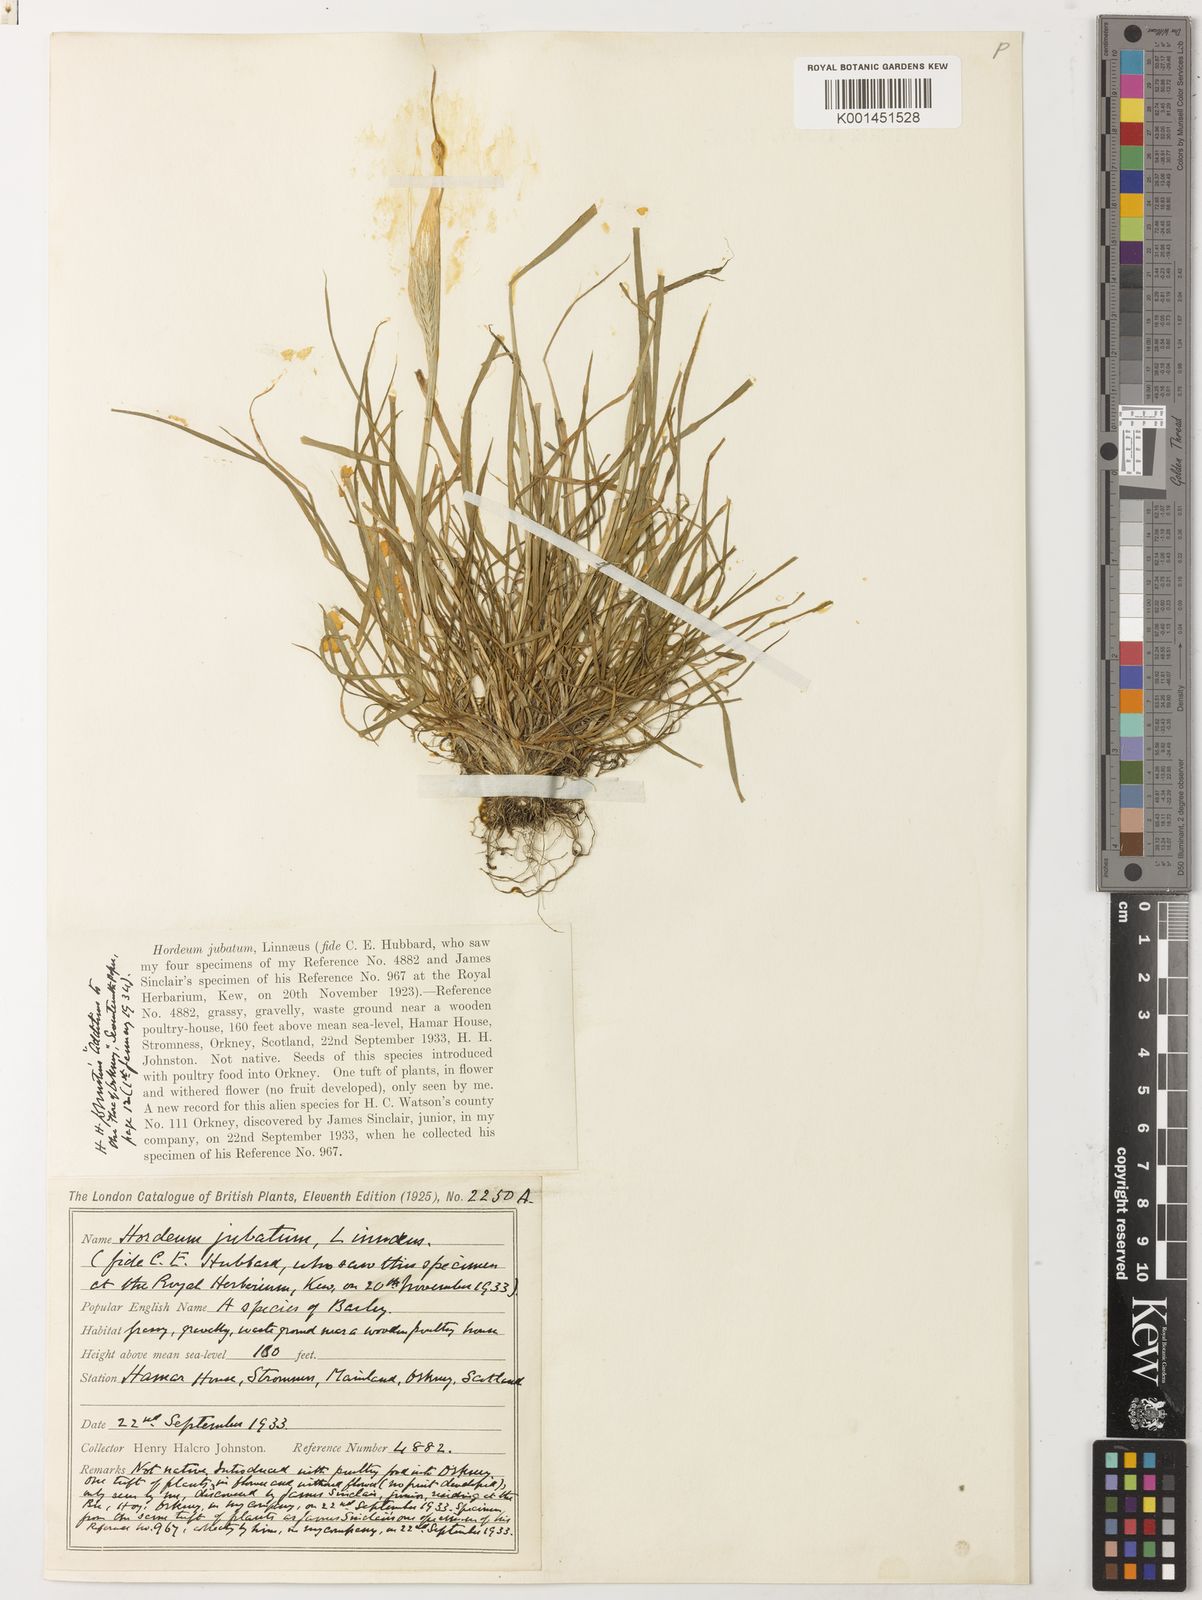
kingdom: Plantae
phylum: Tracheophyta
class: Liliopsida
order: Poales
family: Poaceae
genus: Hordeum
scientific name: Hordeum jubatum
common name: Foxtail barley
